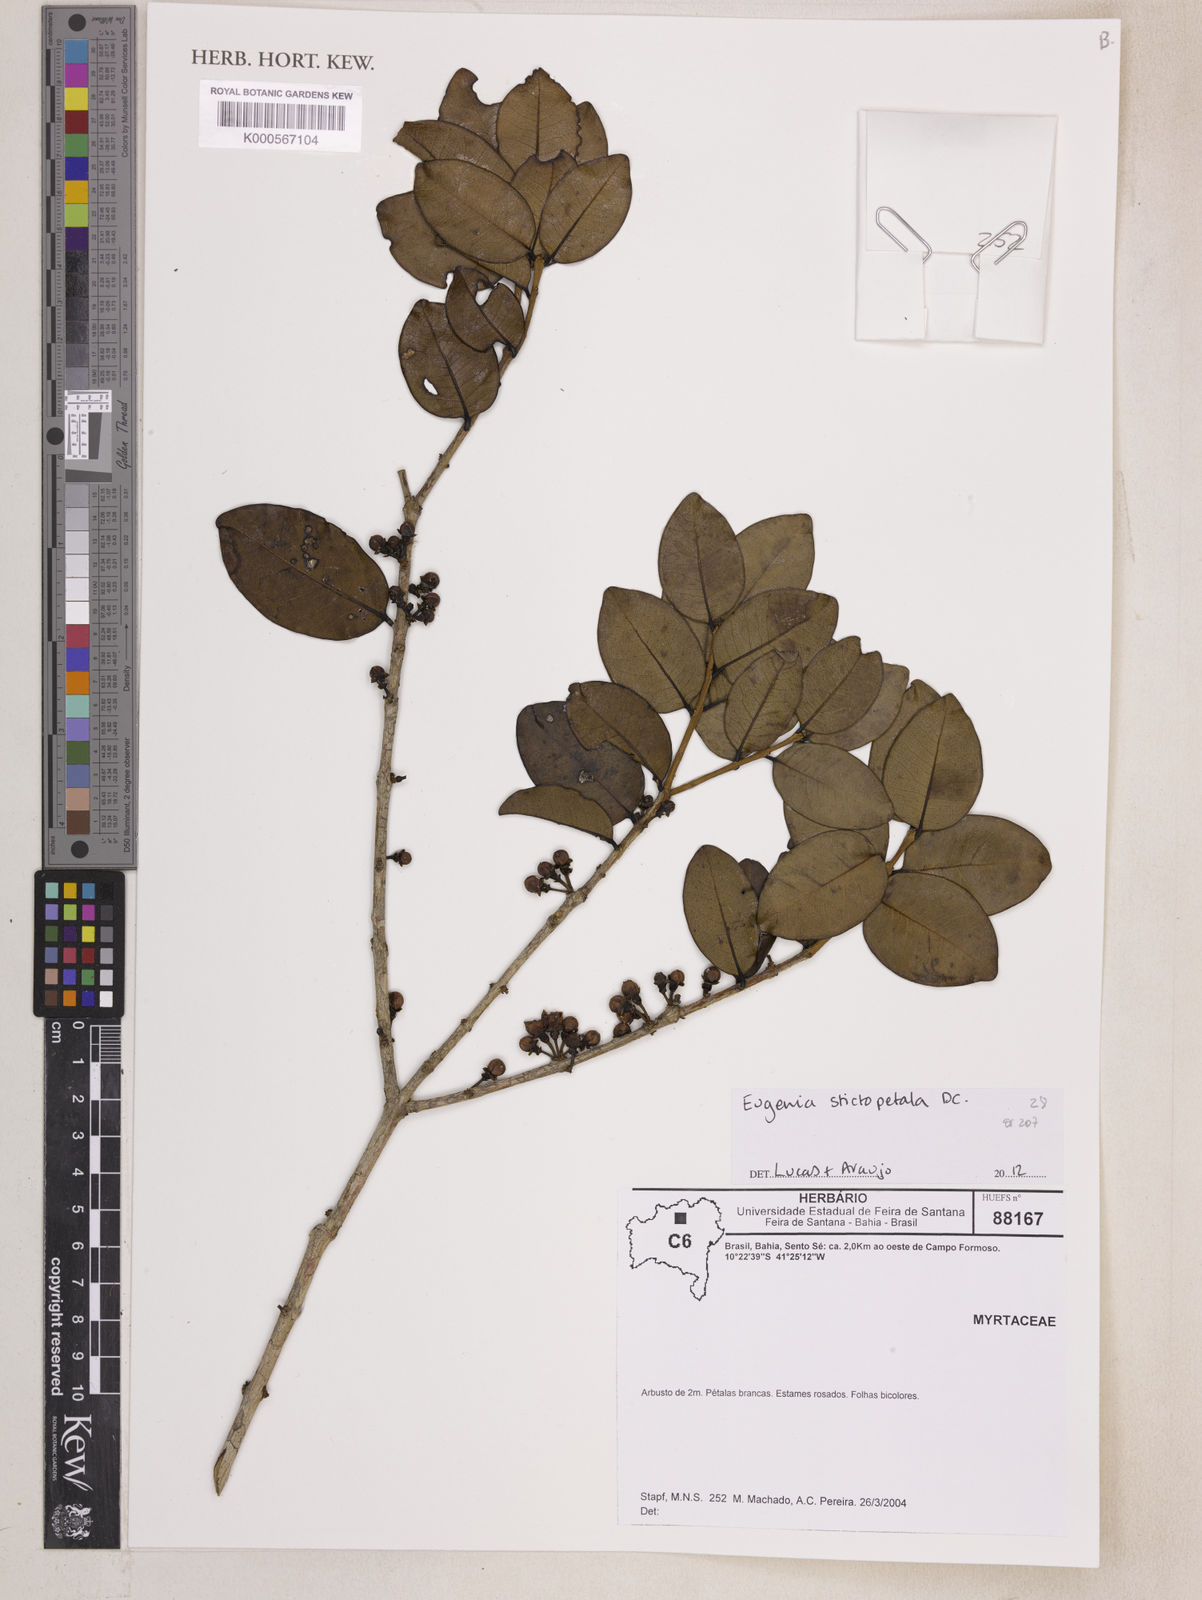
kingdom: Plantae
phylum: Tracheophyta
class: Magnoliopsida
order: Myrtales
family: Myrtaceae
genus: Eugenia
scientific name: Eugenia stictopetala
